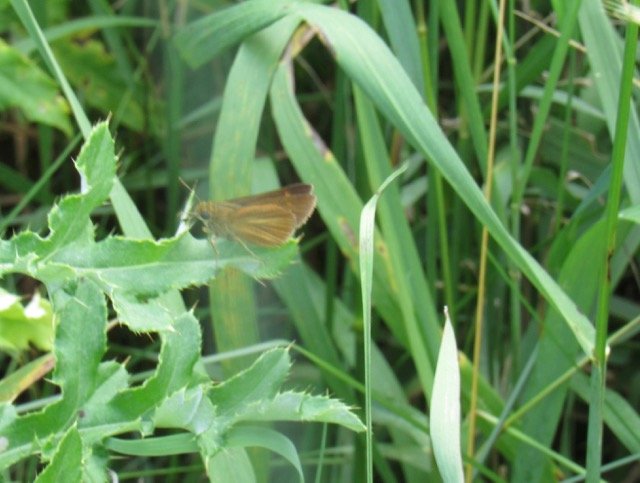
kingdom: Animalia
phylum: Arthropoda
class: Insecta
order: Lepidoptera
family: Hesperiidae
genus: Euphyes
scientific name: Euphyes dion
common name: Dion Skipper
